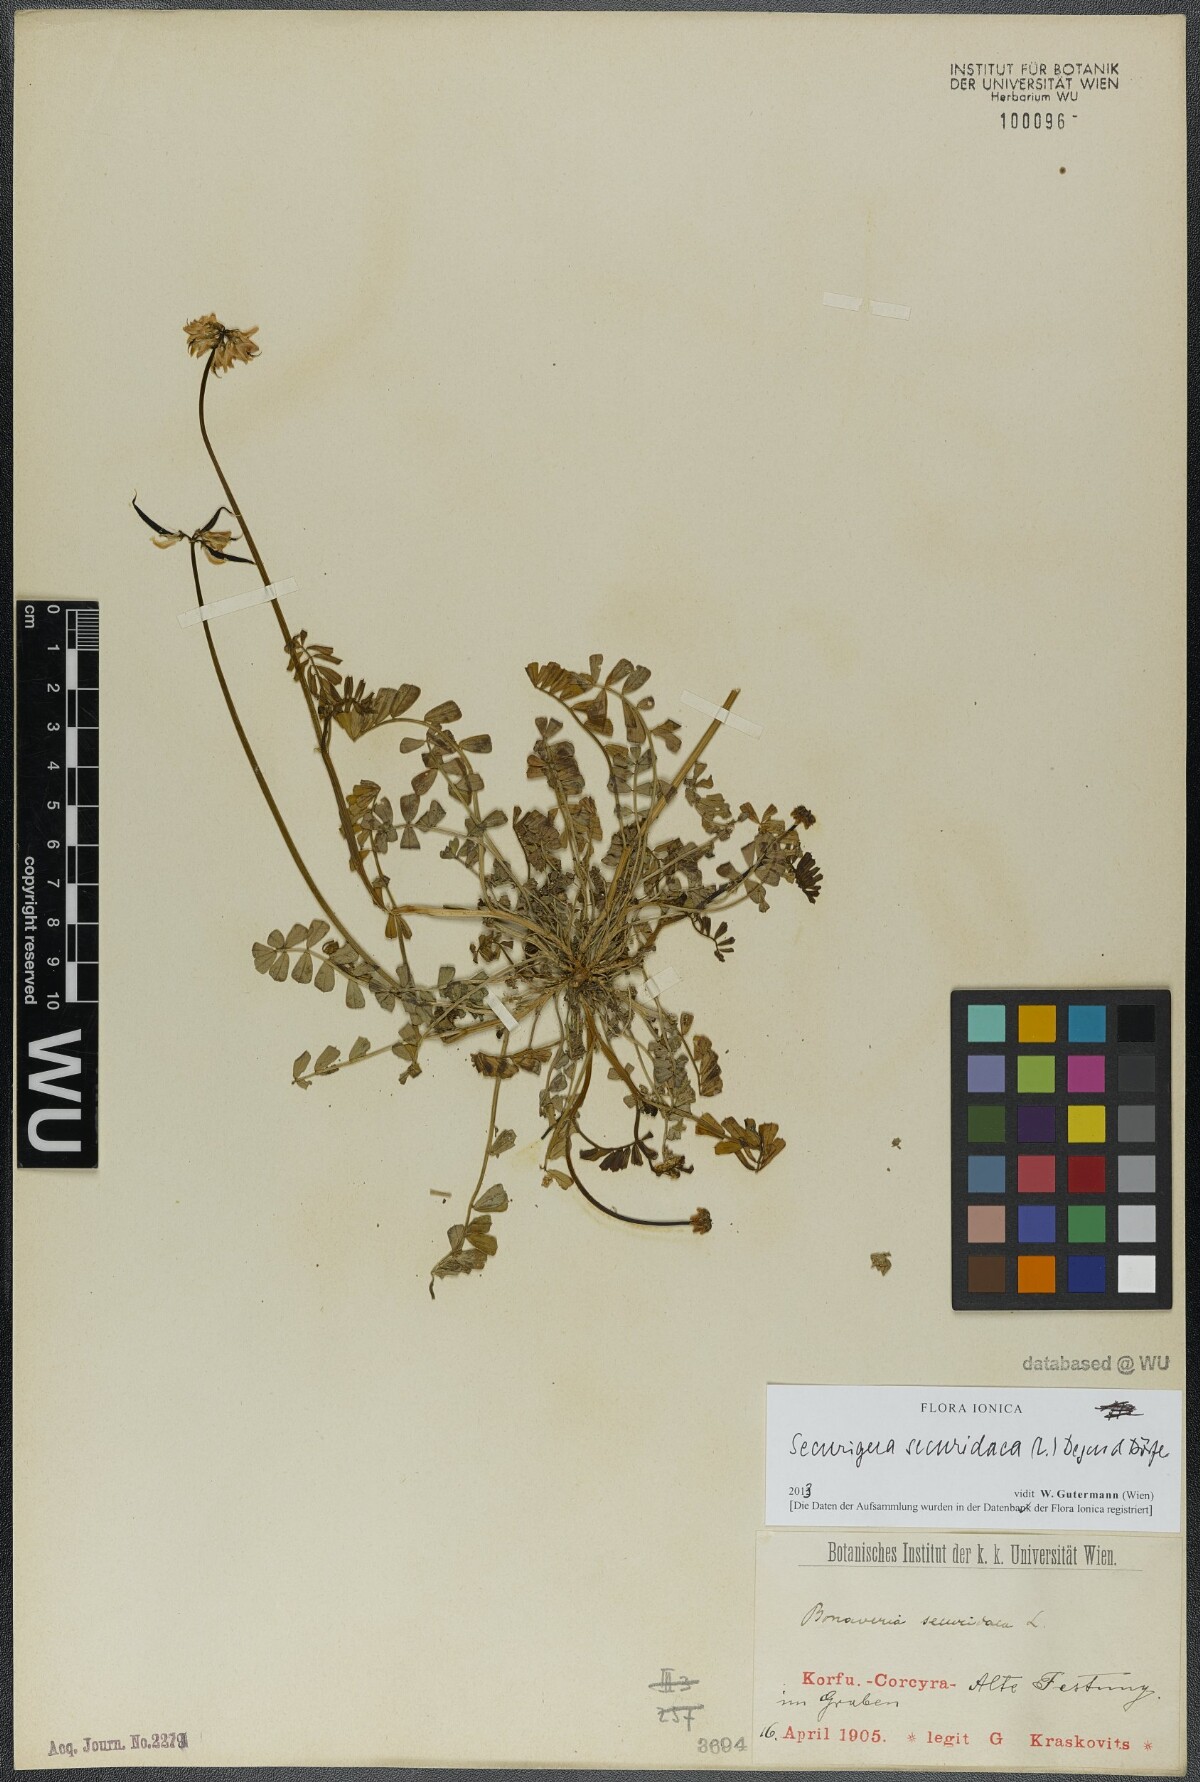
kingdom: Plantae
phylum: Tracheophyta
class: Magnoliopsida
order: Fabales
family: Fabaceae
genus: Coronilla
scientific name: Coronilla securidaca
